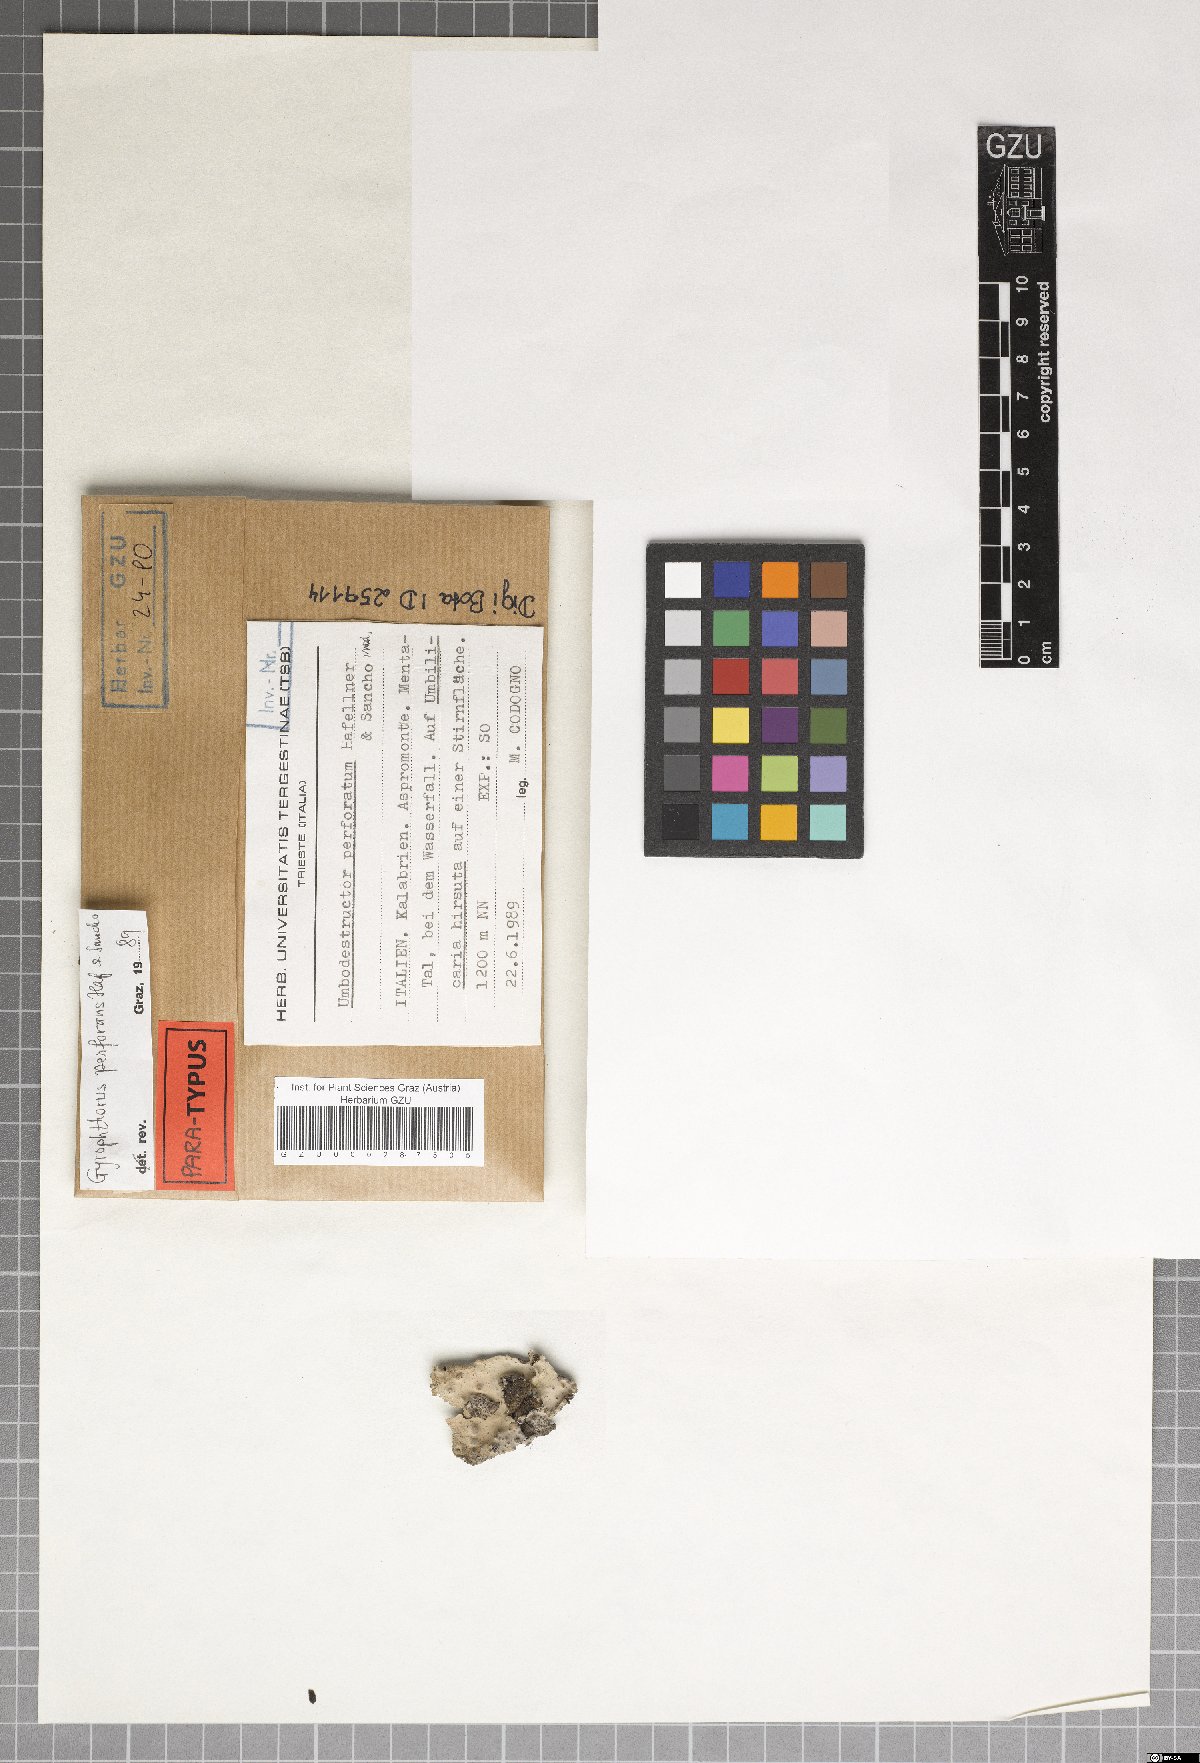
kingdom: Fungi
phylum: Ascomycota
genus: Gyrophthorus
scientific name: Gyrophthorus perforans
